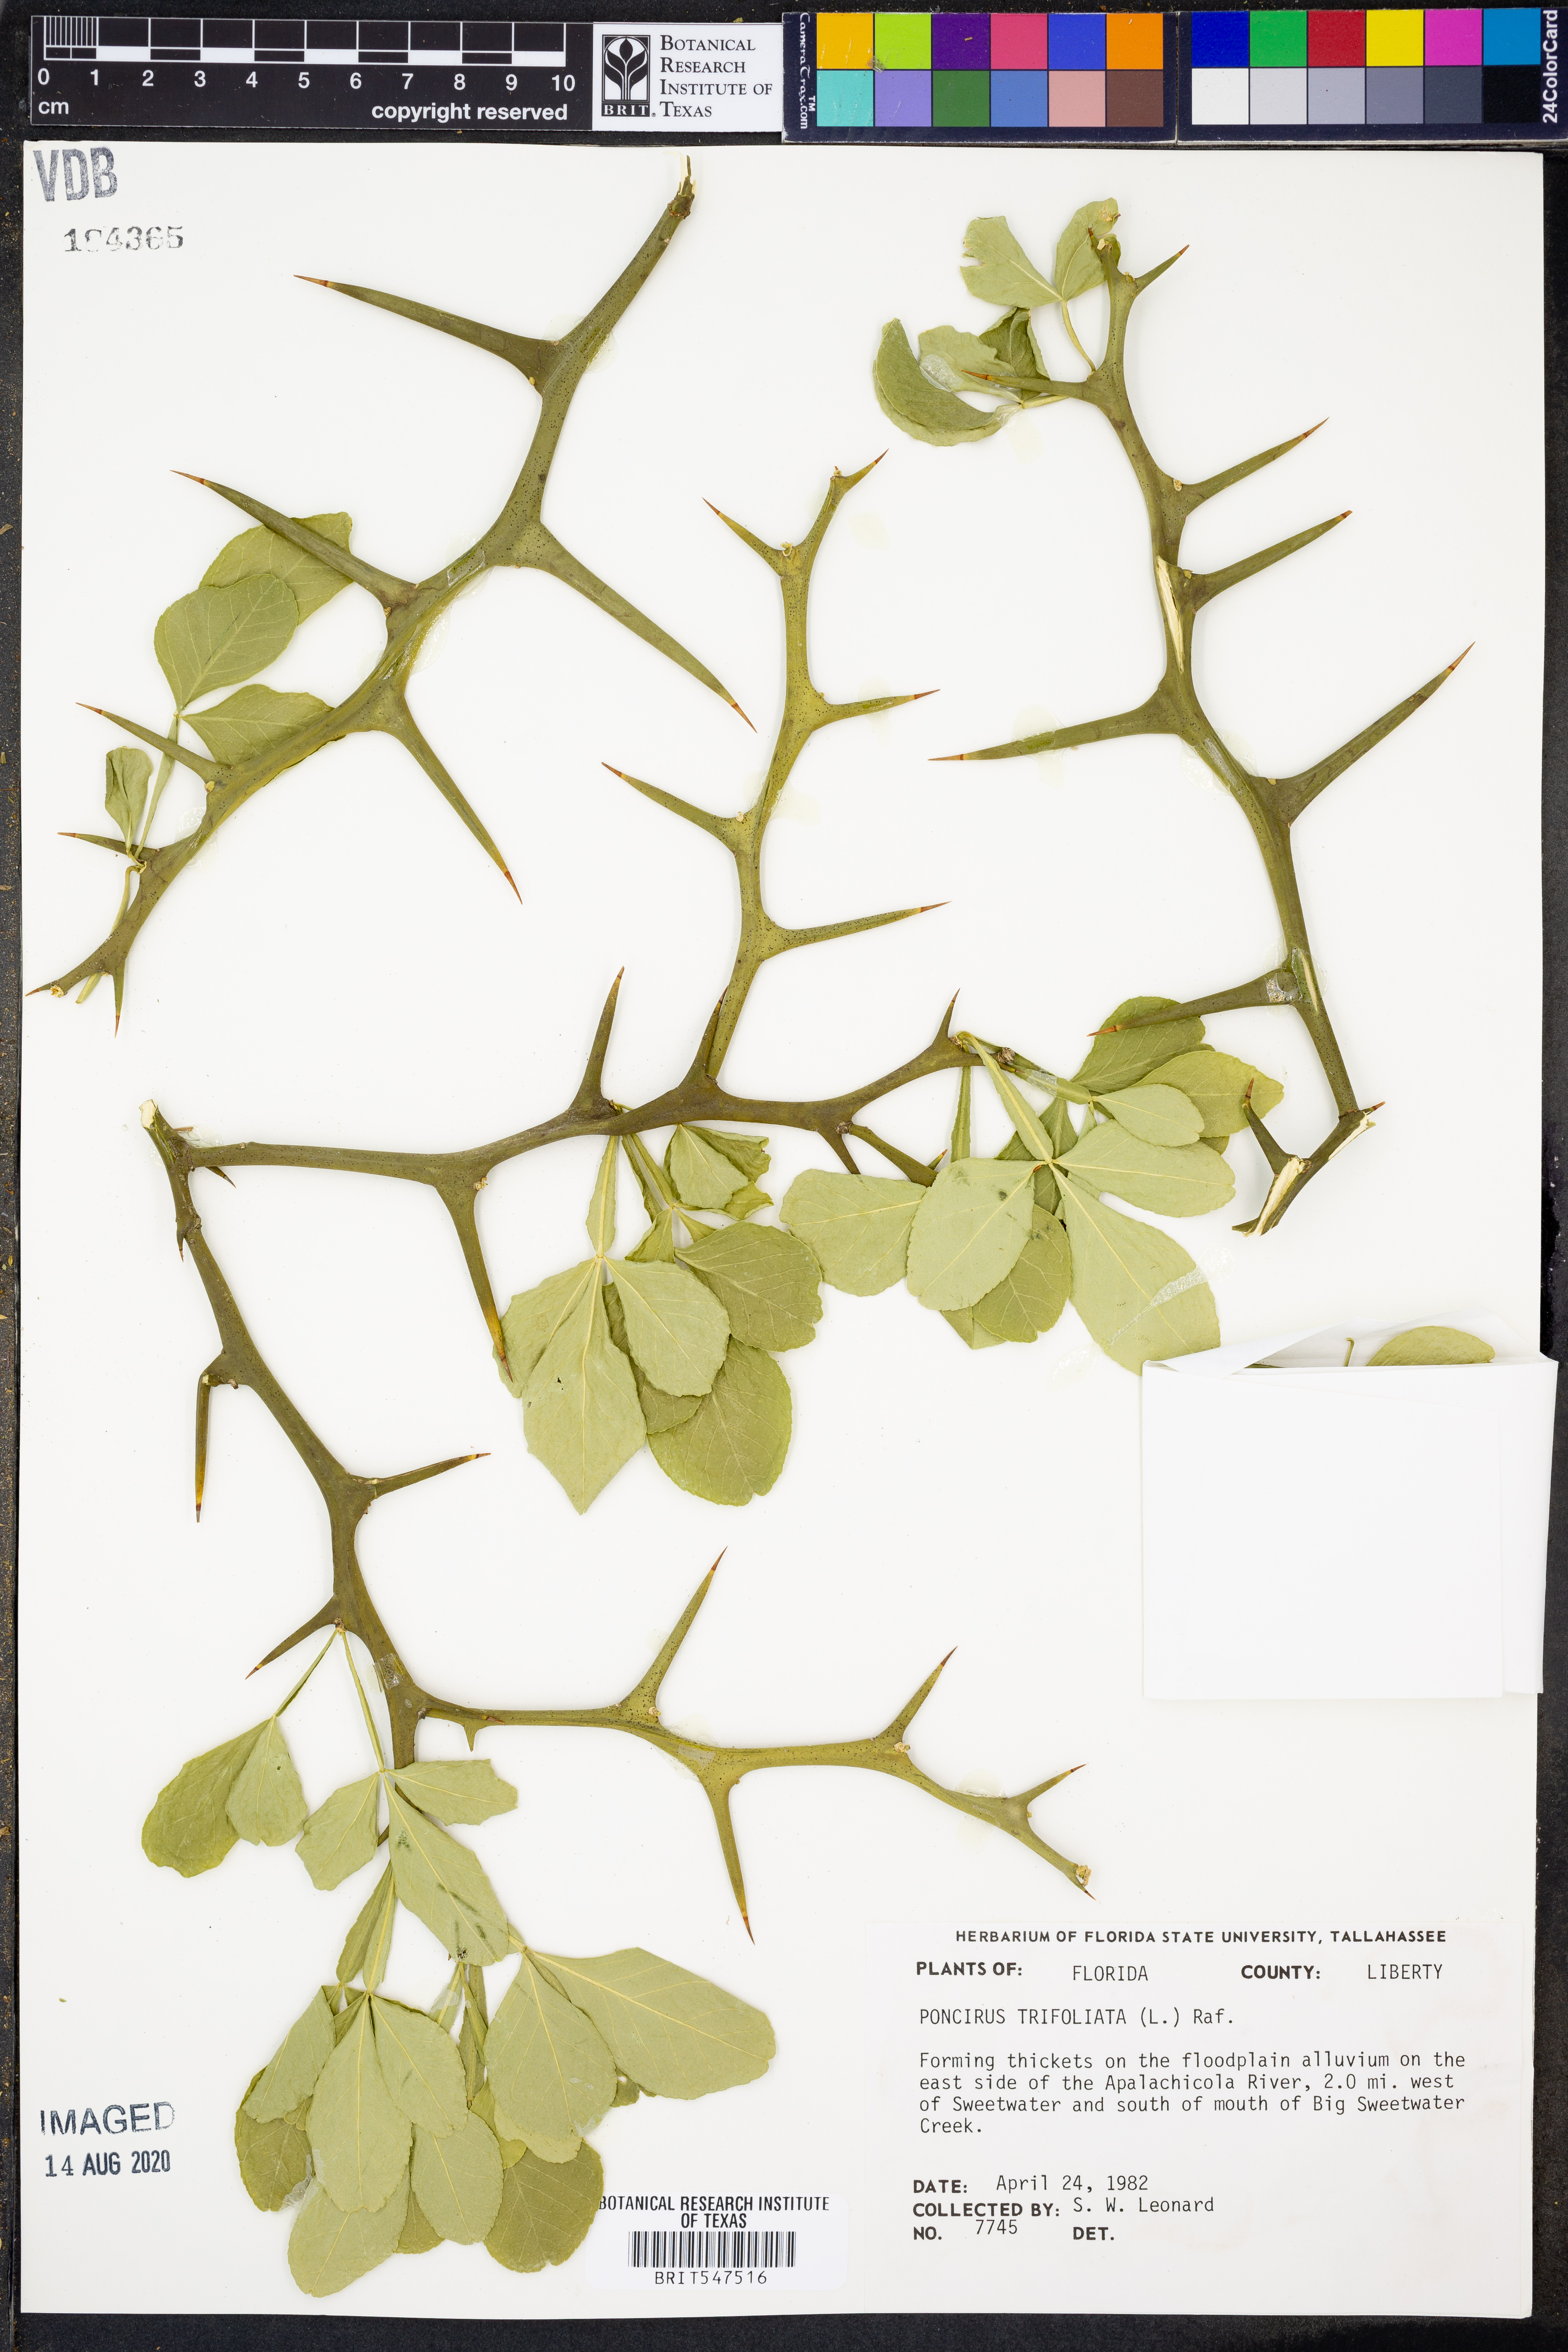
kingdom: Plantae
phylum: Tracheophyta
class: Magnoliopsida
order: Sapindales
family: Rutaceae
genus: Citrus
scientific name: Citrus trifoliata
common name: Japanese bitter-orange
